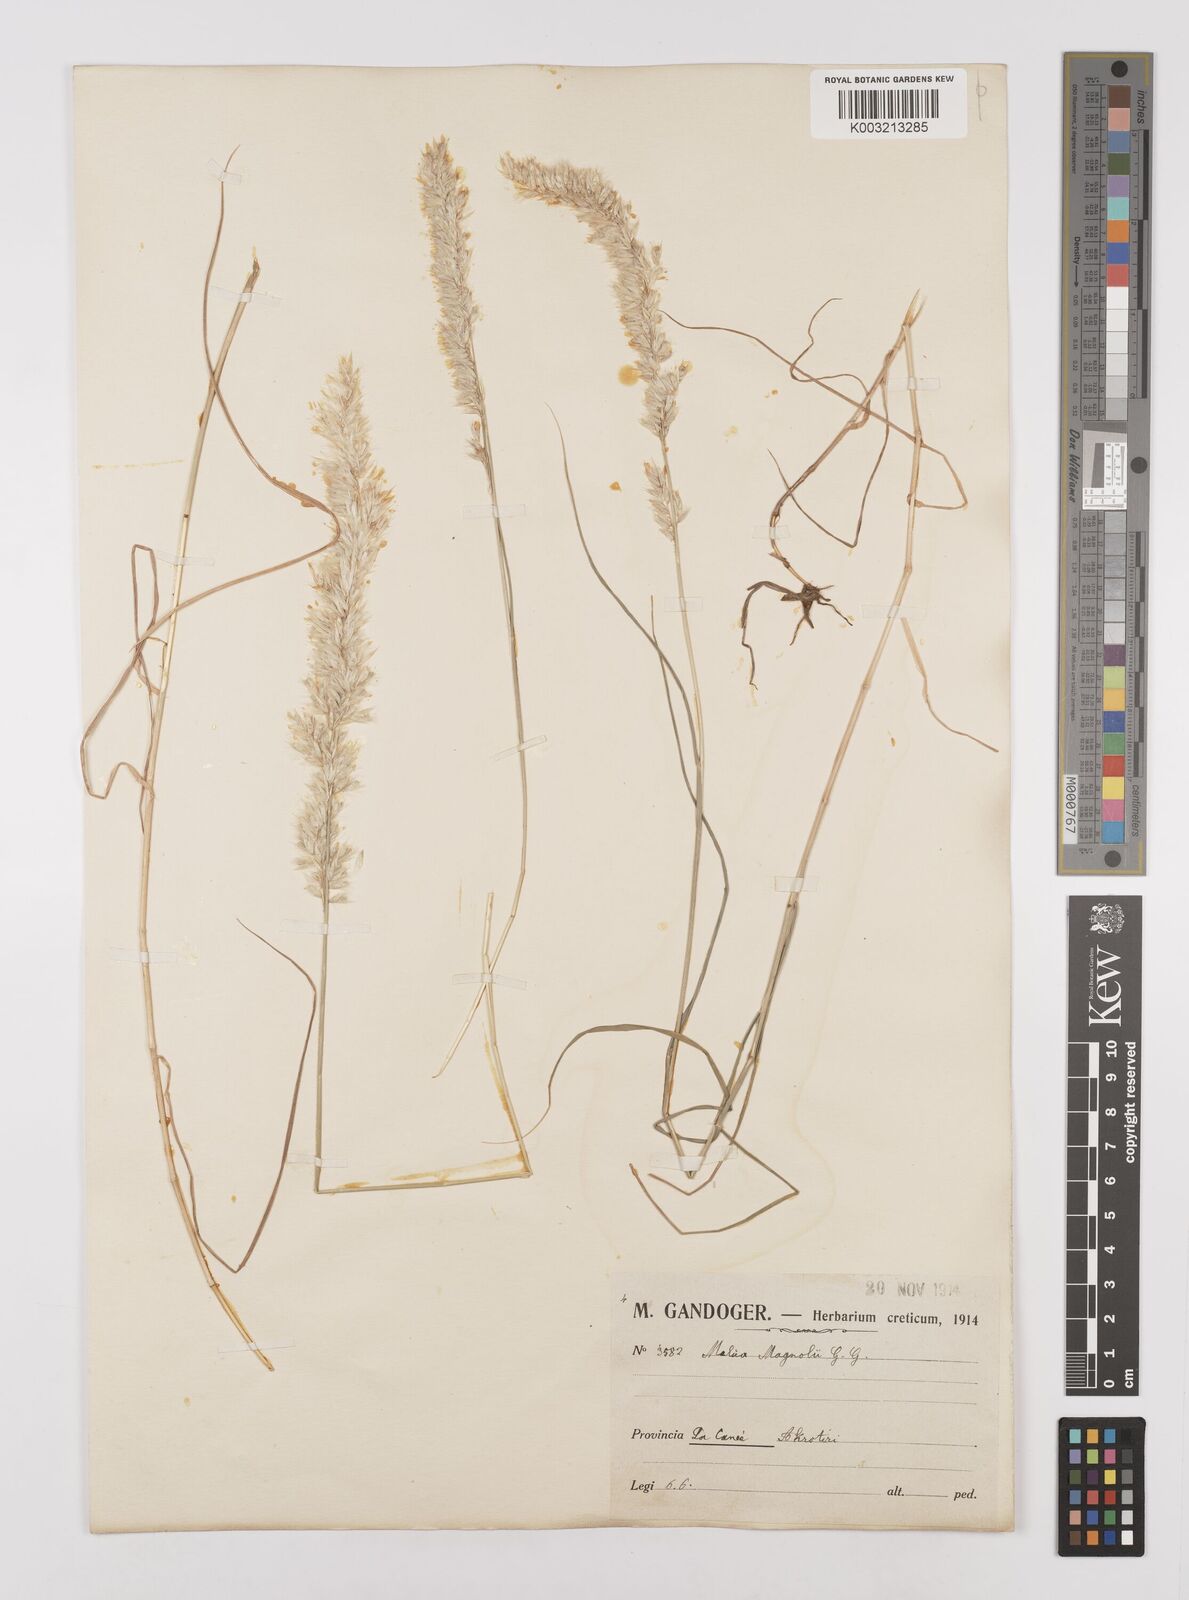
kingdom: Plantae
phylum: Tracheophyta
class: Liliopsida
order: Poales
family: Poaceae
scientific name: Poaceae
